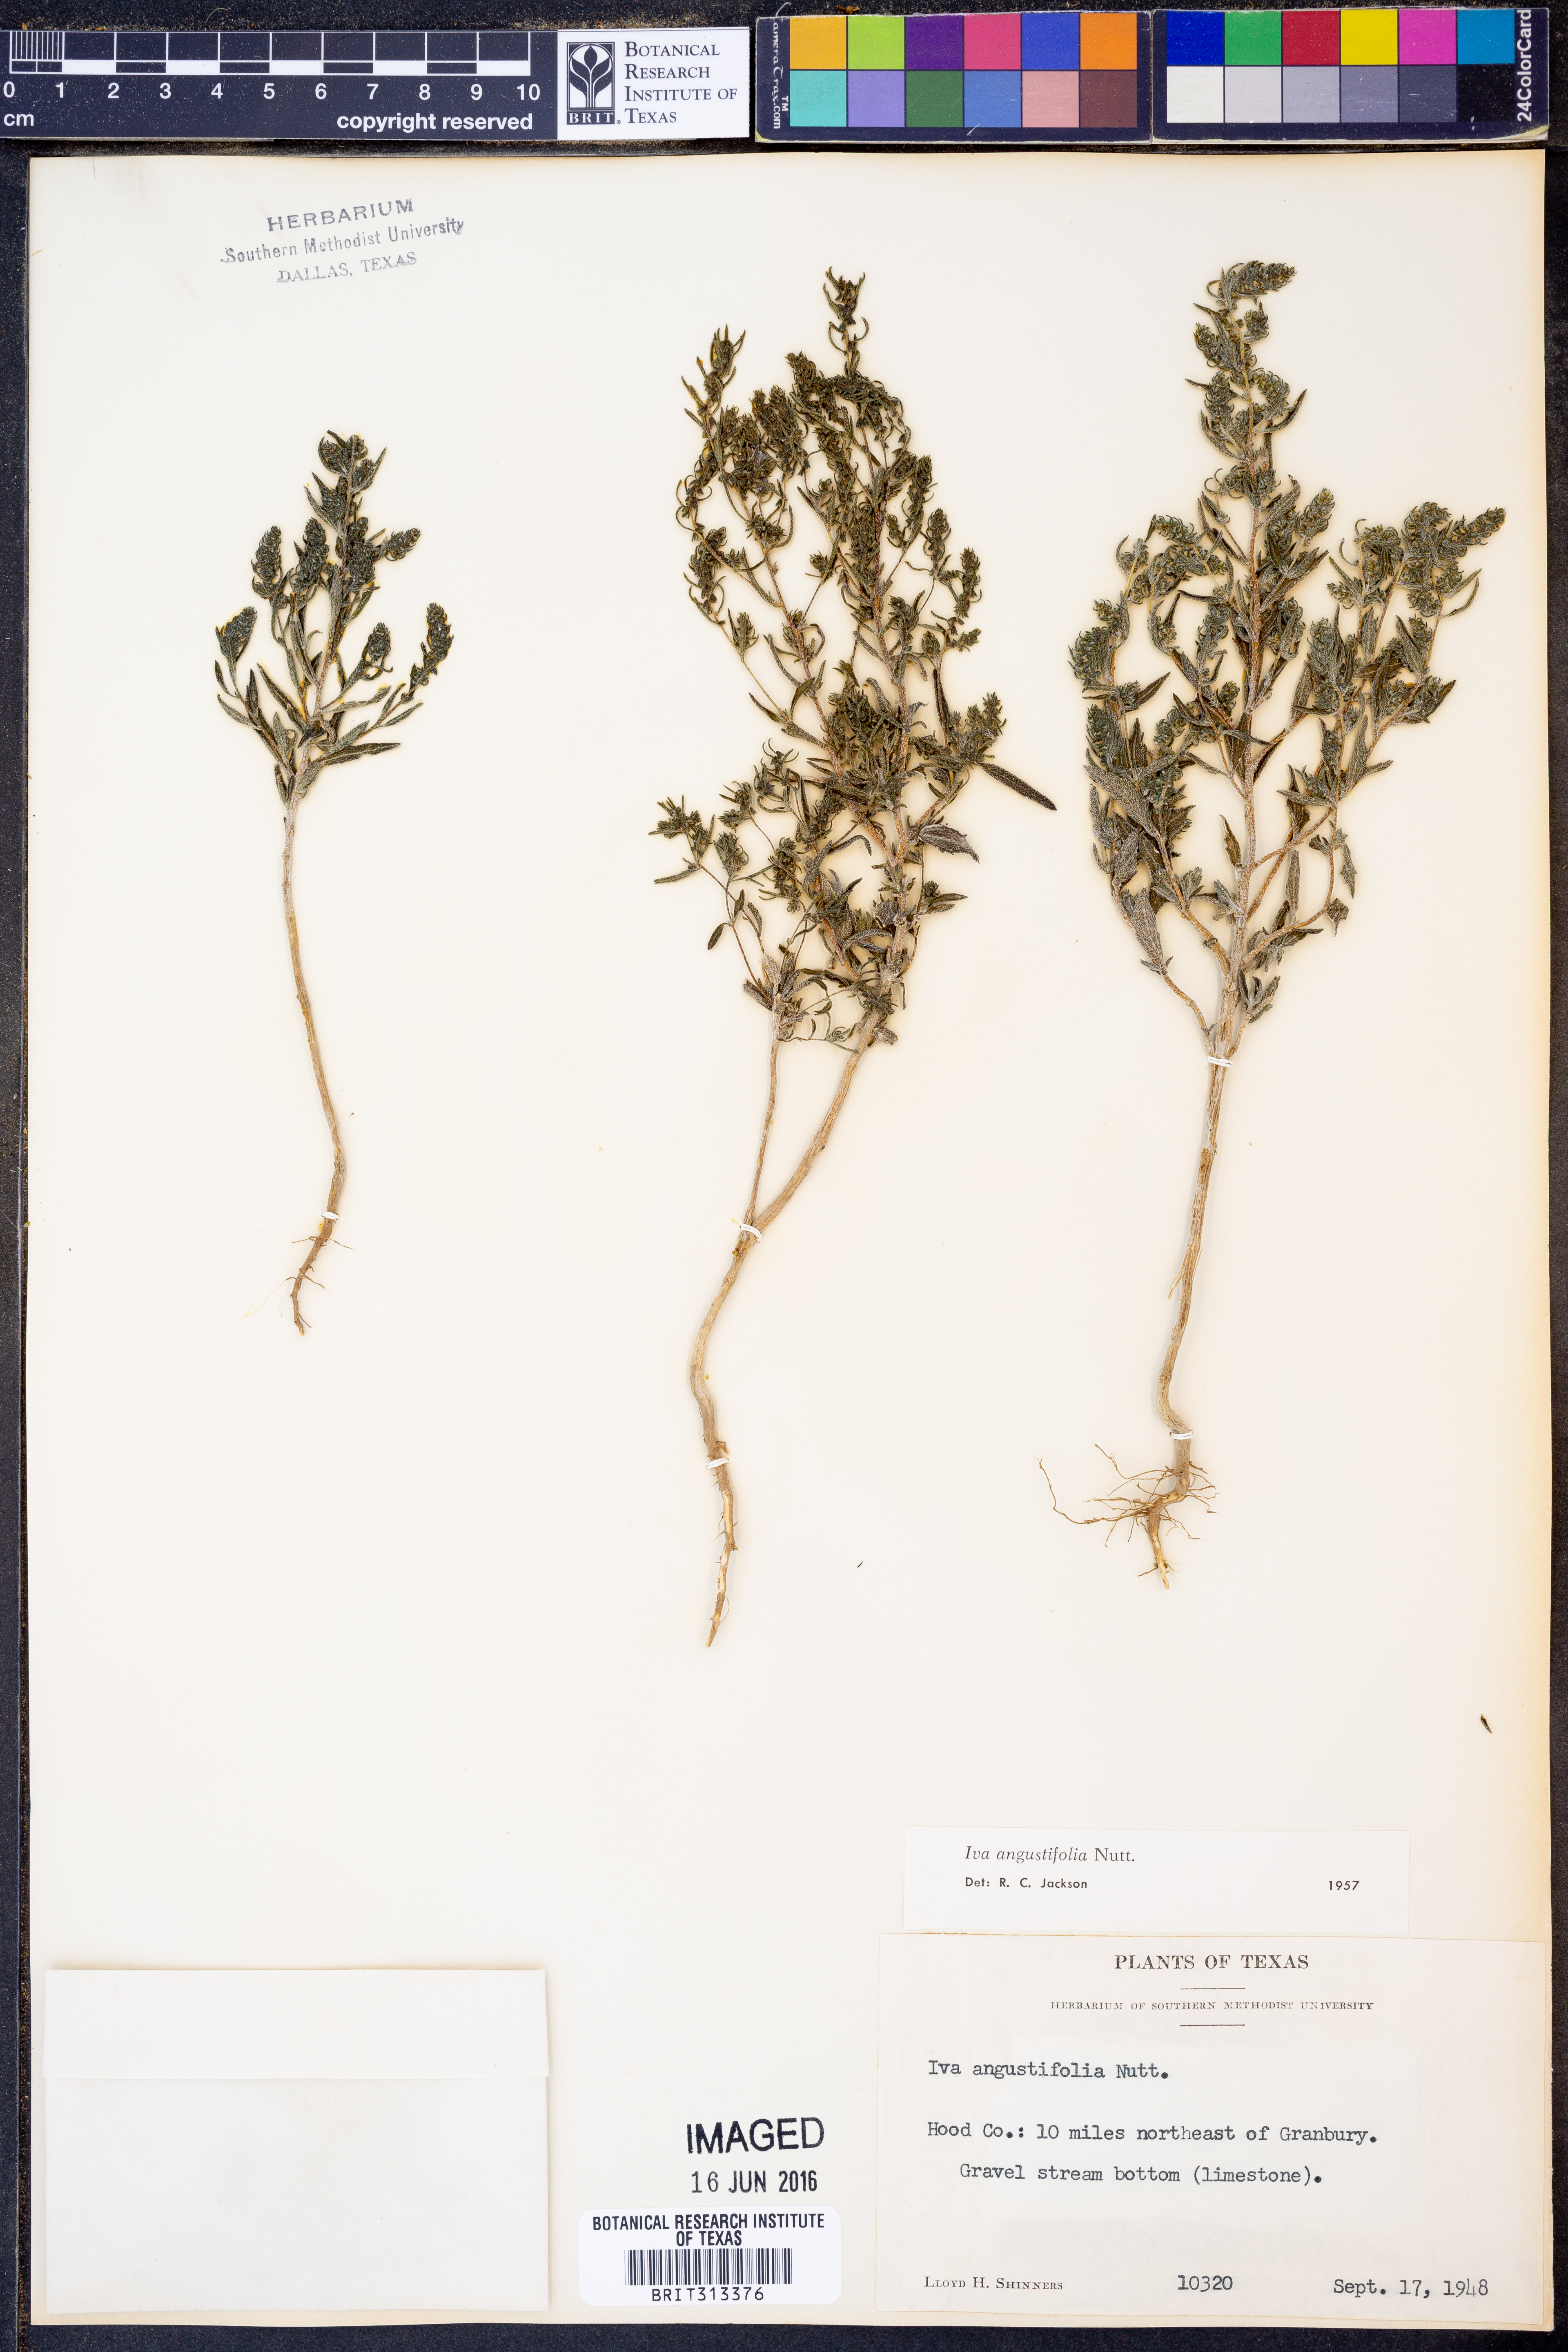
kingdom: Plantae
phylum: Tracheophyta
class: Magnoliopsida
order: Asterales
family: Asteraceae
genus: Iva
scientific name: Iva asperifolia
